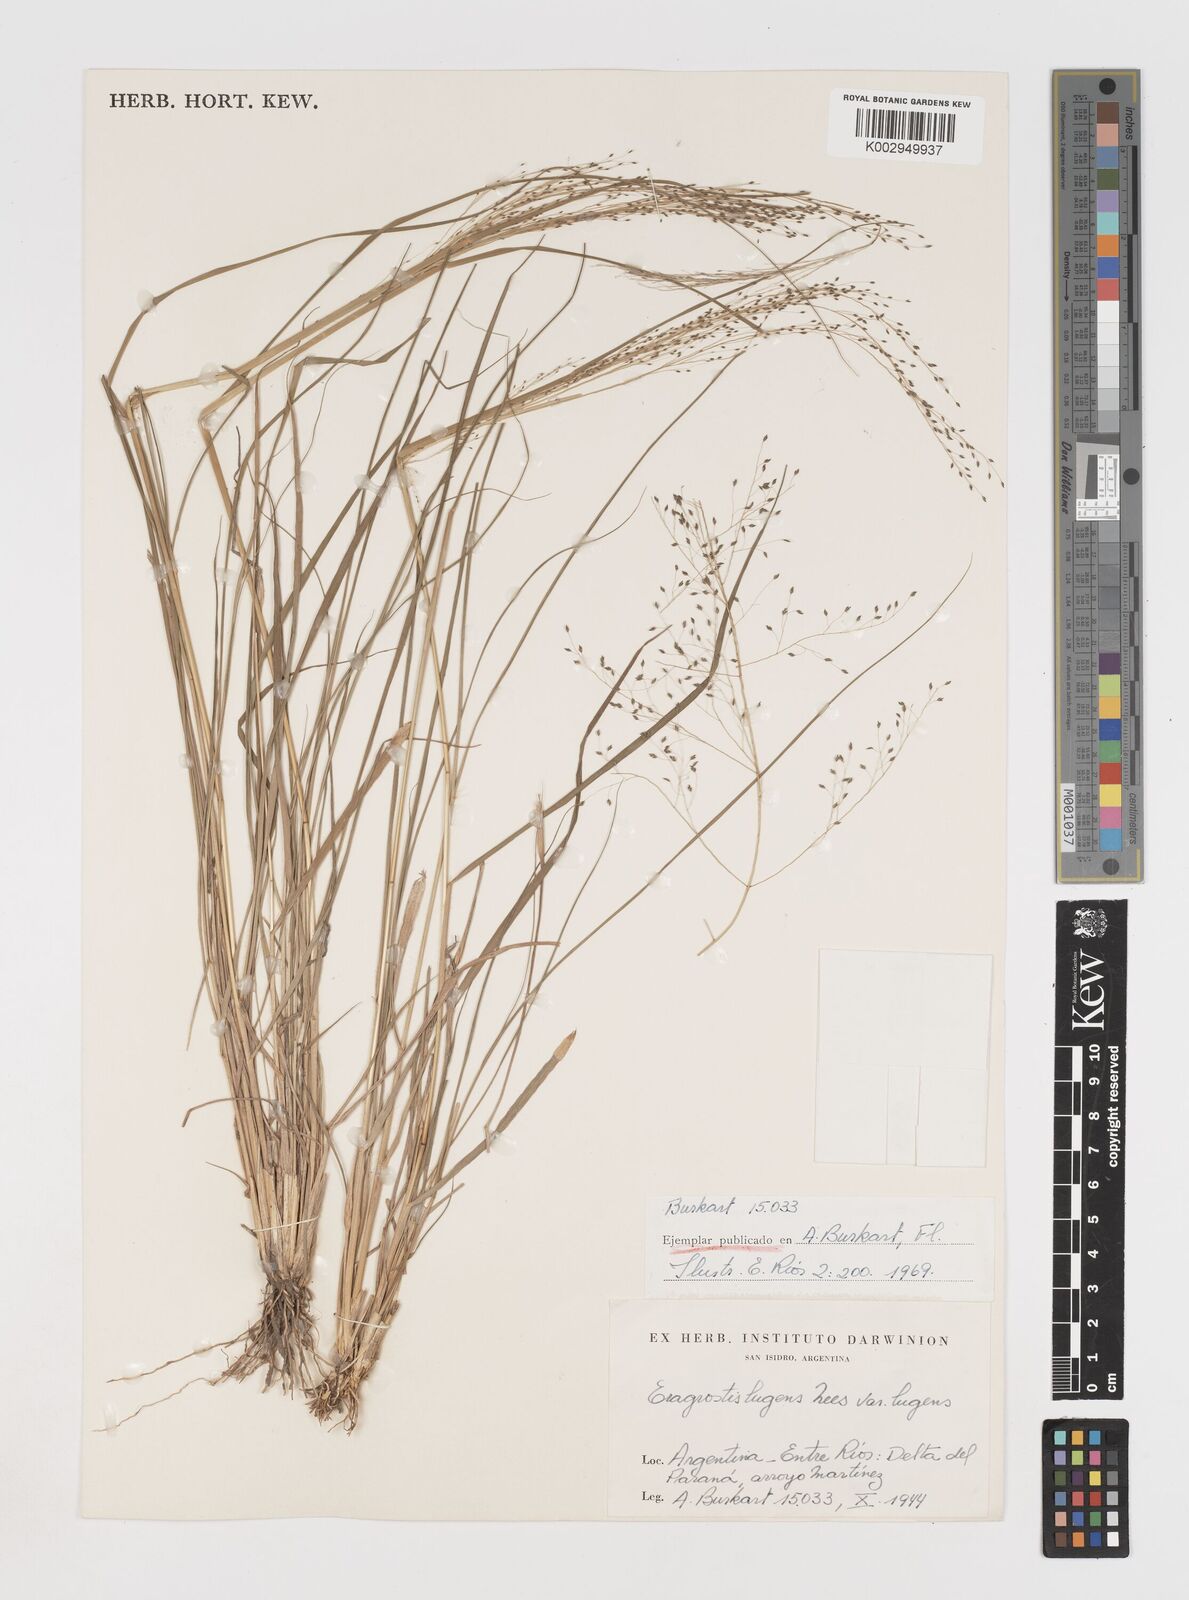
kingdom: Plantae
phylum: Tracheophyta
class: Liliopsida
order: Poales
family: Poaceae
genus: Eragrostis
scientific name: Eragrostis lugens
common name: Mourning love grass
